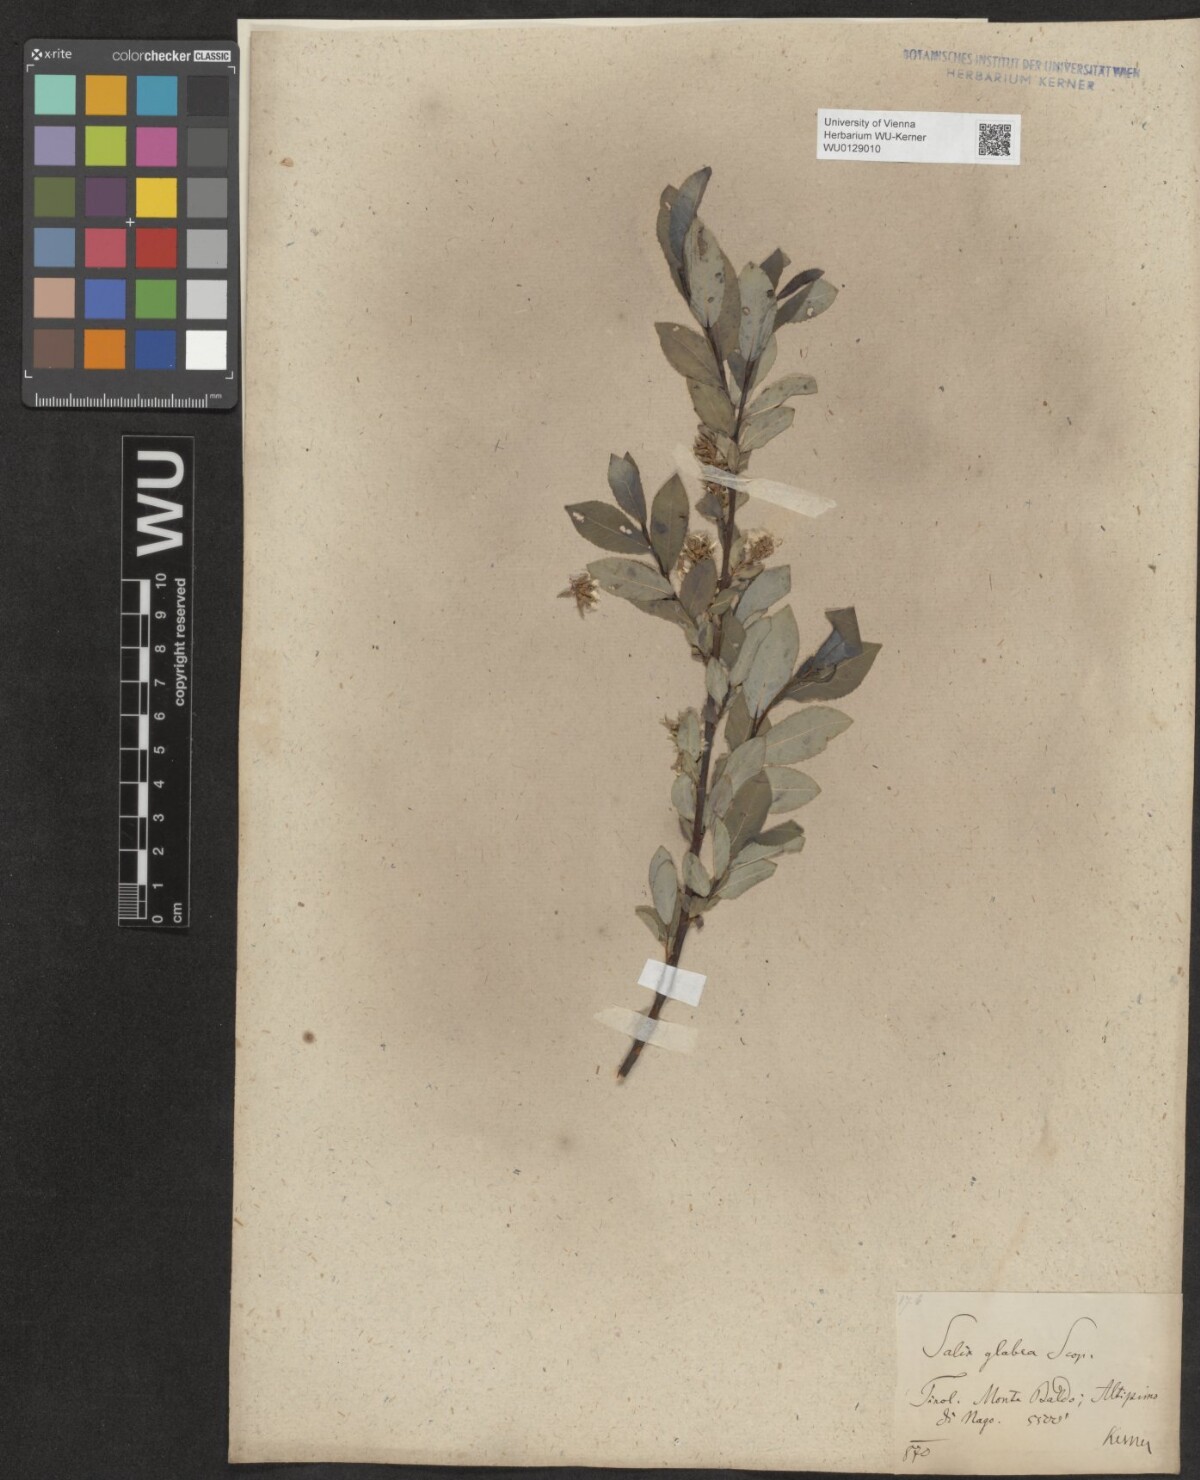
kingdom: Plantae
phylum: Tracheophyta
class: Magnoliopsida
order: Malpighiales
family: Salicaceae
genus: Salix
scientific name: Salix glabra
